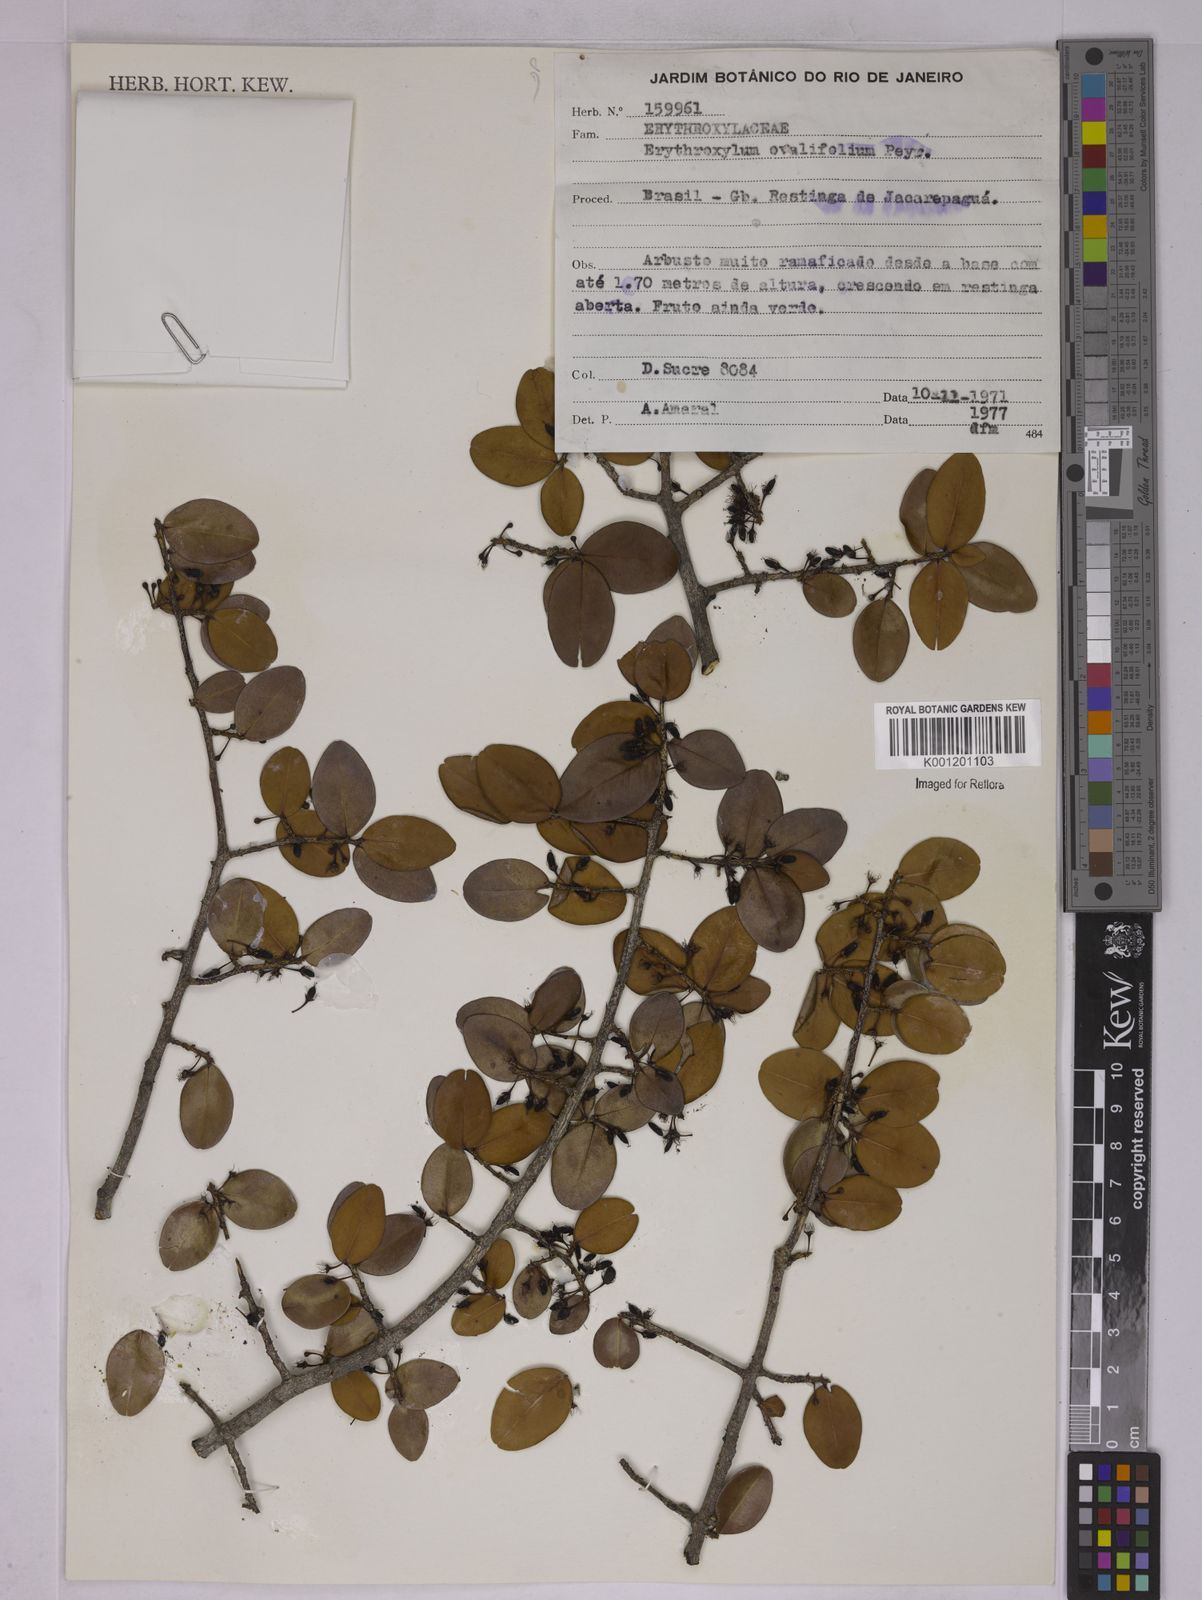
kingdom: Plantae
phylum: Tracheophyta
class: Magnoliopsida
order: Malpighiales
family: Erythroxylaceae
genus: Erythroxylum
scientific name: Erythroxylum ovalifolium
